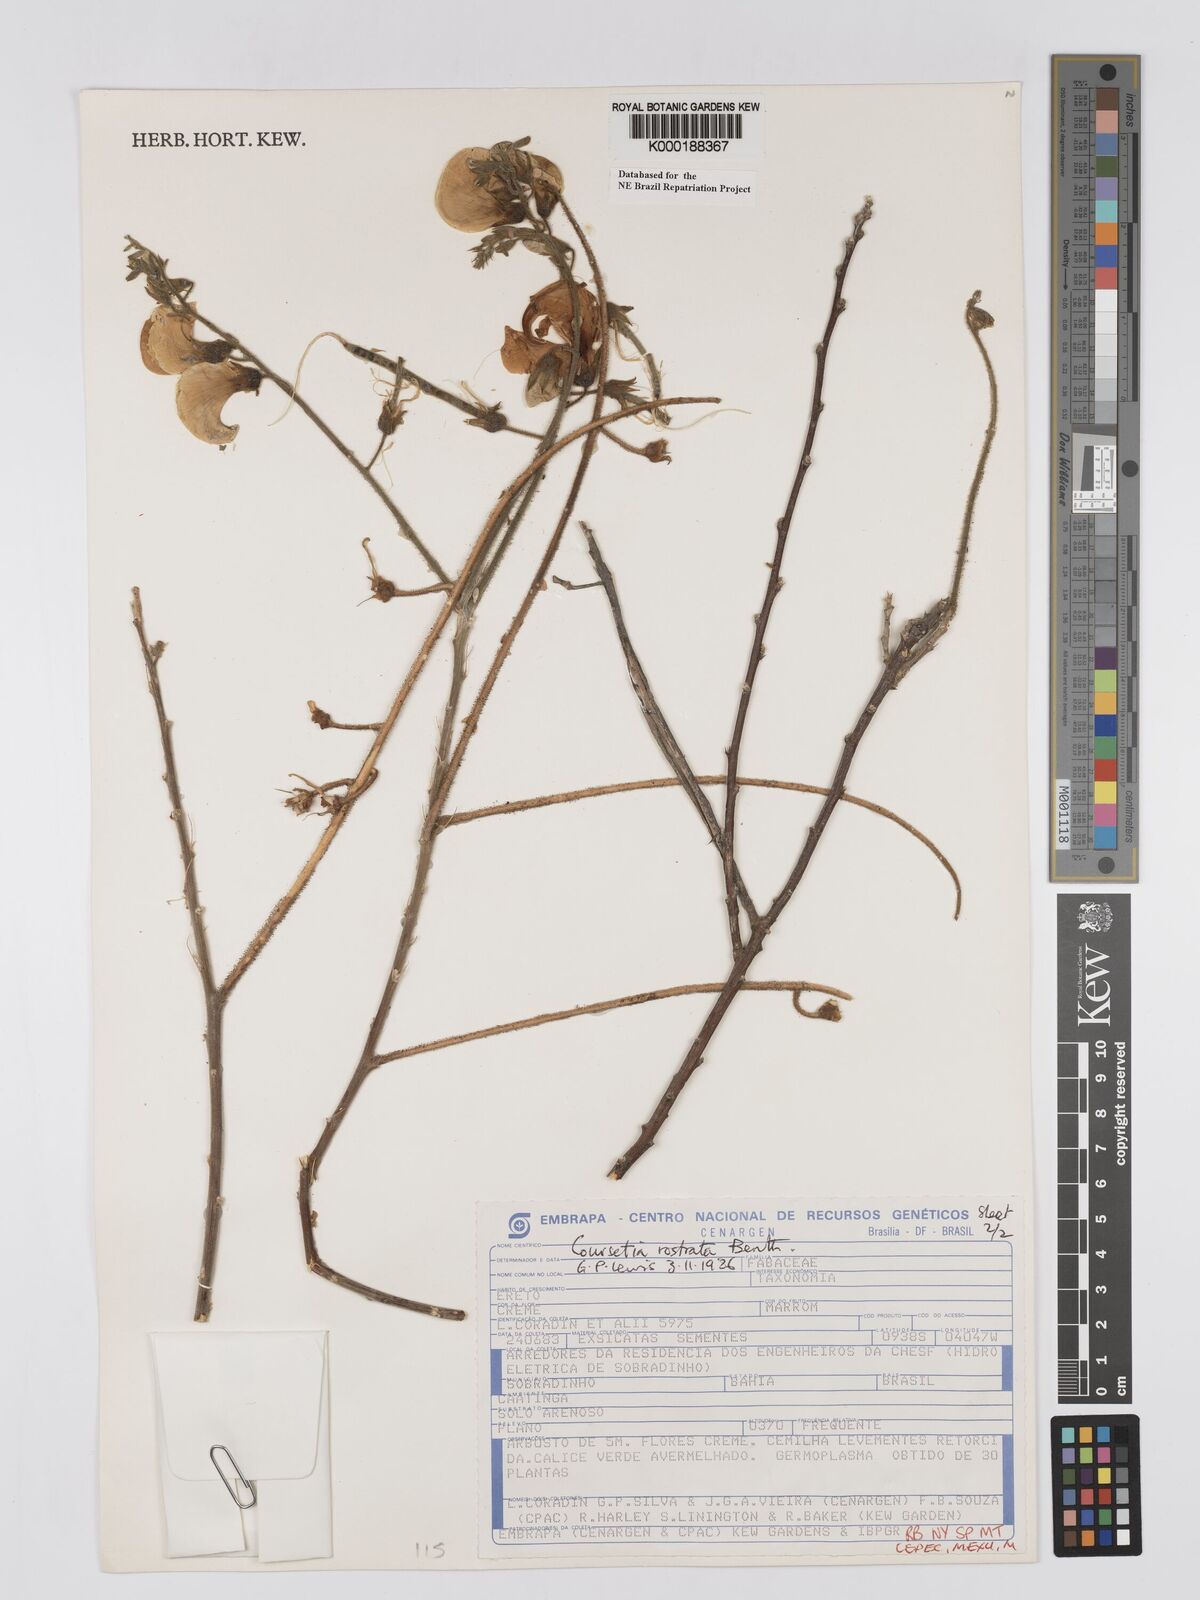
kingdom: Plantae
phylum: Tracheophyta
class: Magnoliopsida
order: Fabales
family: Fabaceae
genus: Coursetia
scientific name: Coursetia rostrata
